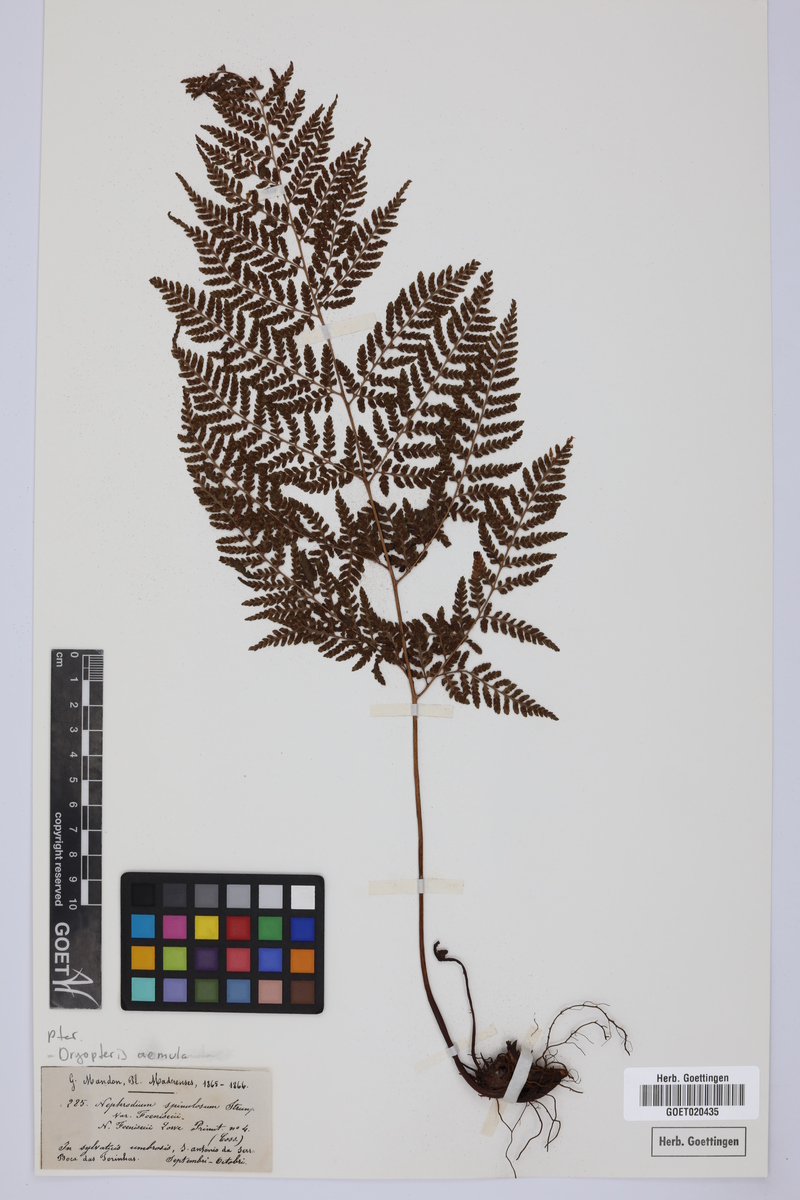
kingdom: Plantae
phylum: Tracheophyta
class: Polypodiopsida
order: Polypodiales
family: Dryopteridaceae
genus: Dryopteris
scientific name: Dryopteris aemula
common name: Hay-scented buckler-fern
